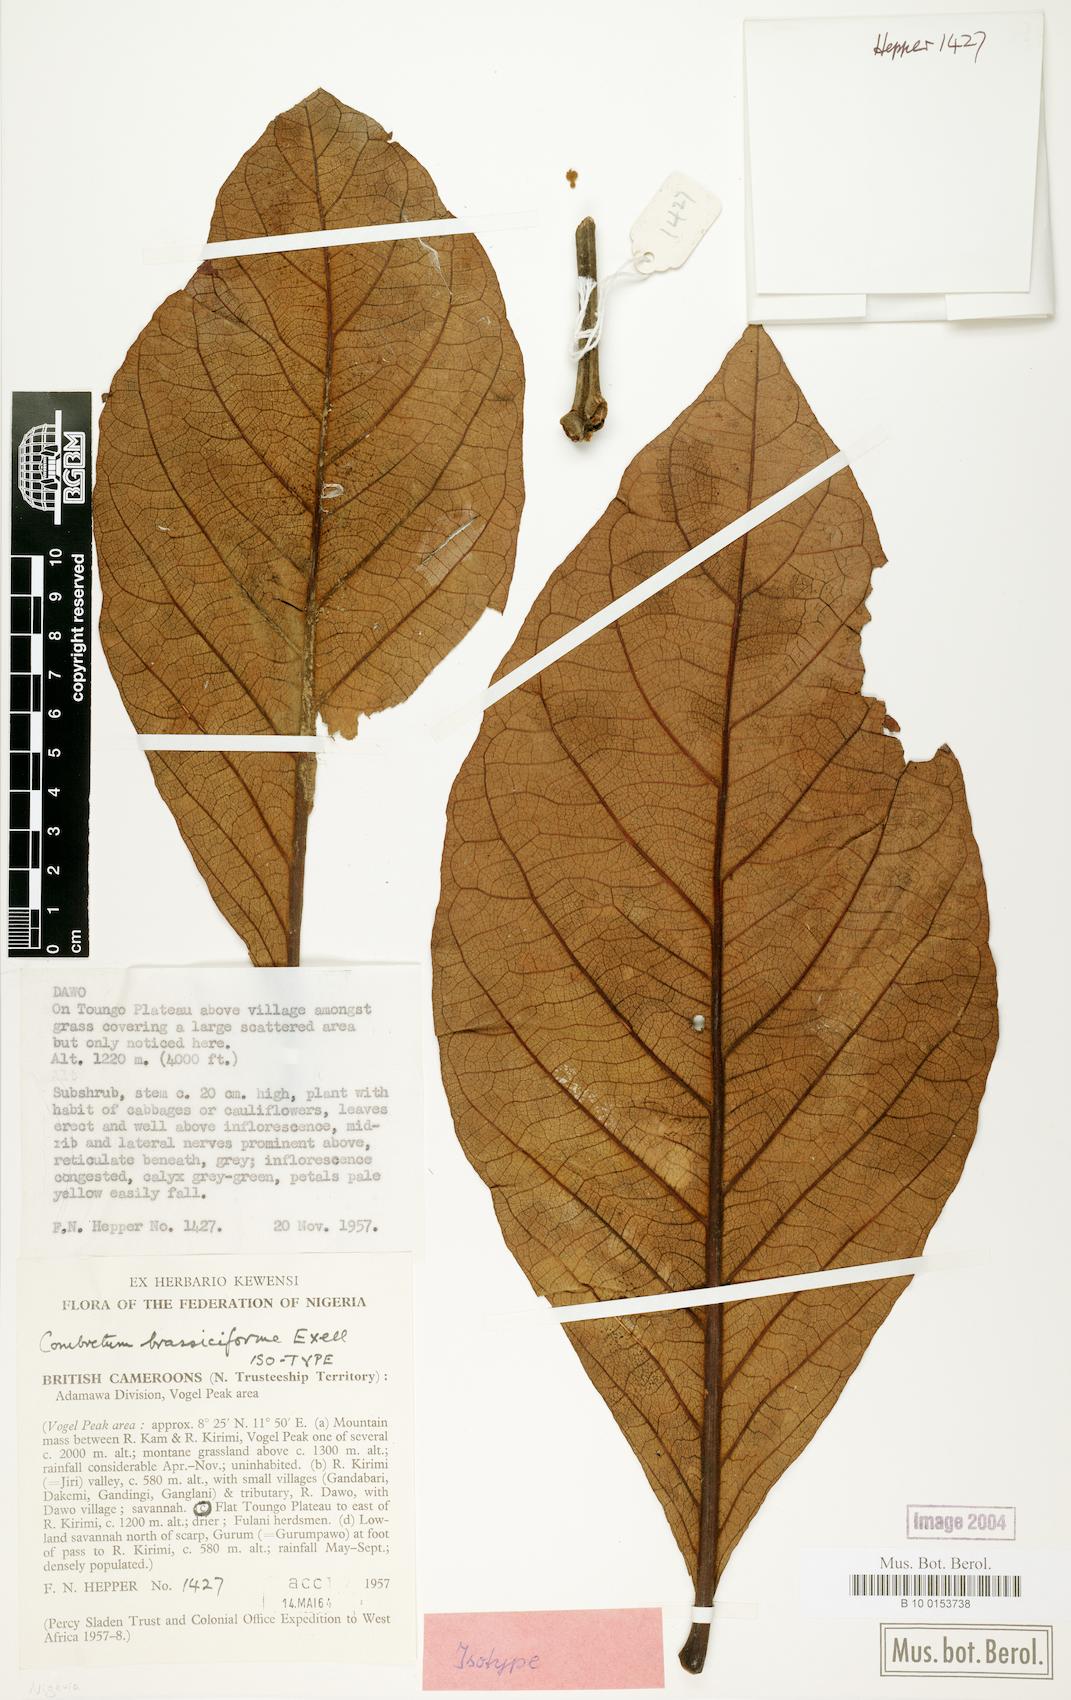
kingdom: Plantae
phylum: Tracheophyta
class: Magnoliopsida
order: Myrtales
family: Combretaceae
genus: Combretum
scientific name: Combretum brassiciforme
